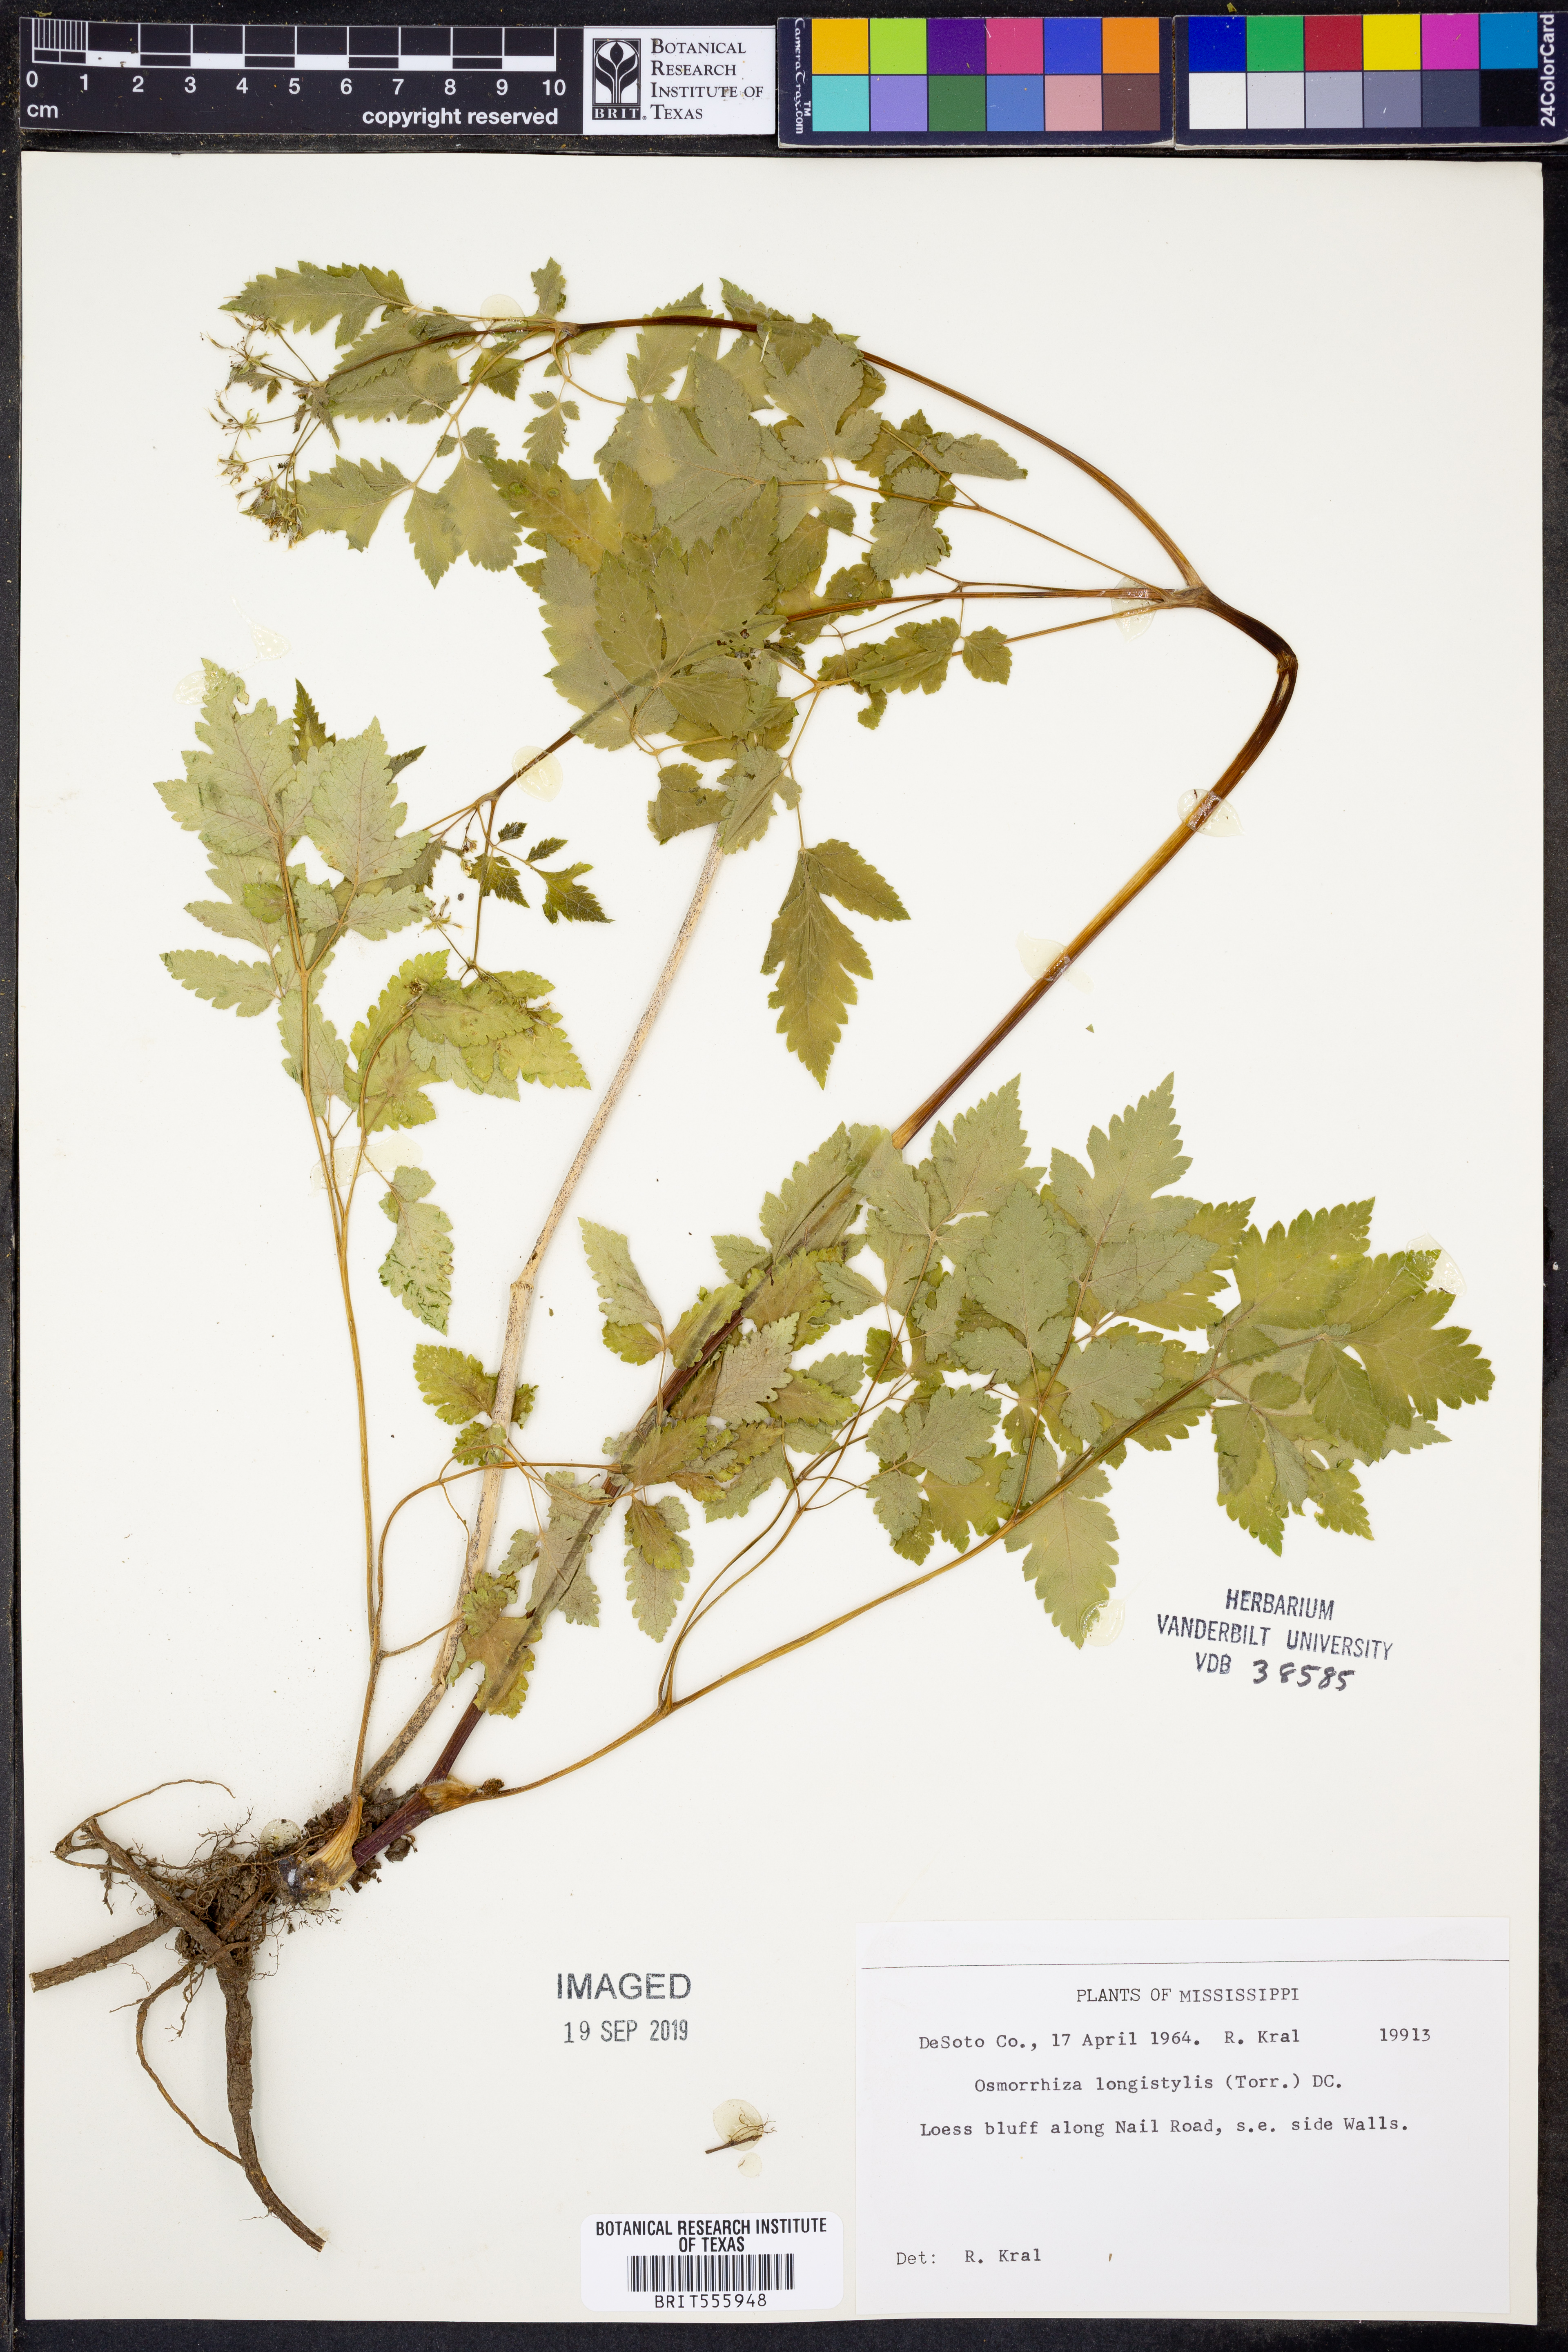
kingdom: Plantae
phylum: Tracheophyta
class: Magnoliopsida
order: Apiales
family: Apiaceae
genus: Osmorhiza
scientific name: Osmorhiza longistylis
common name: Smooth sweet cicely
